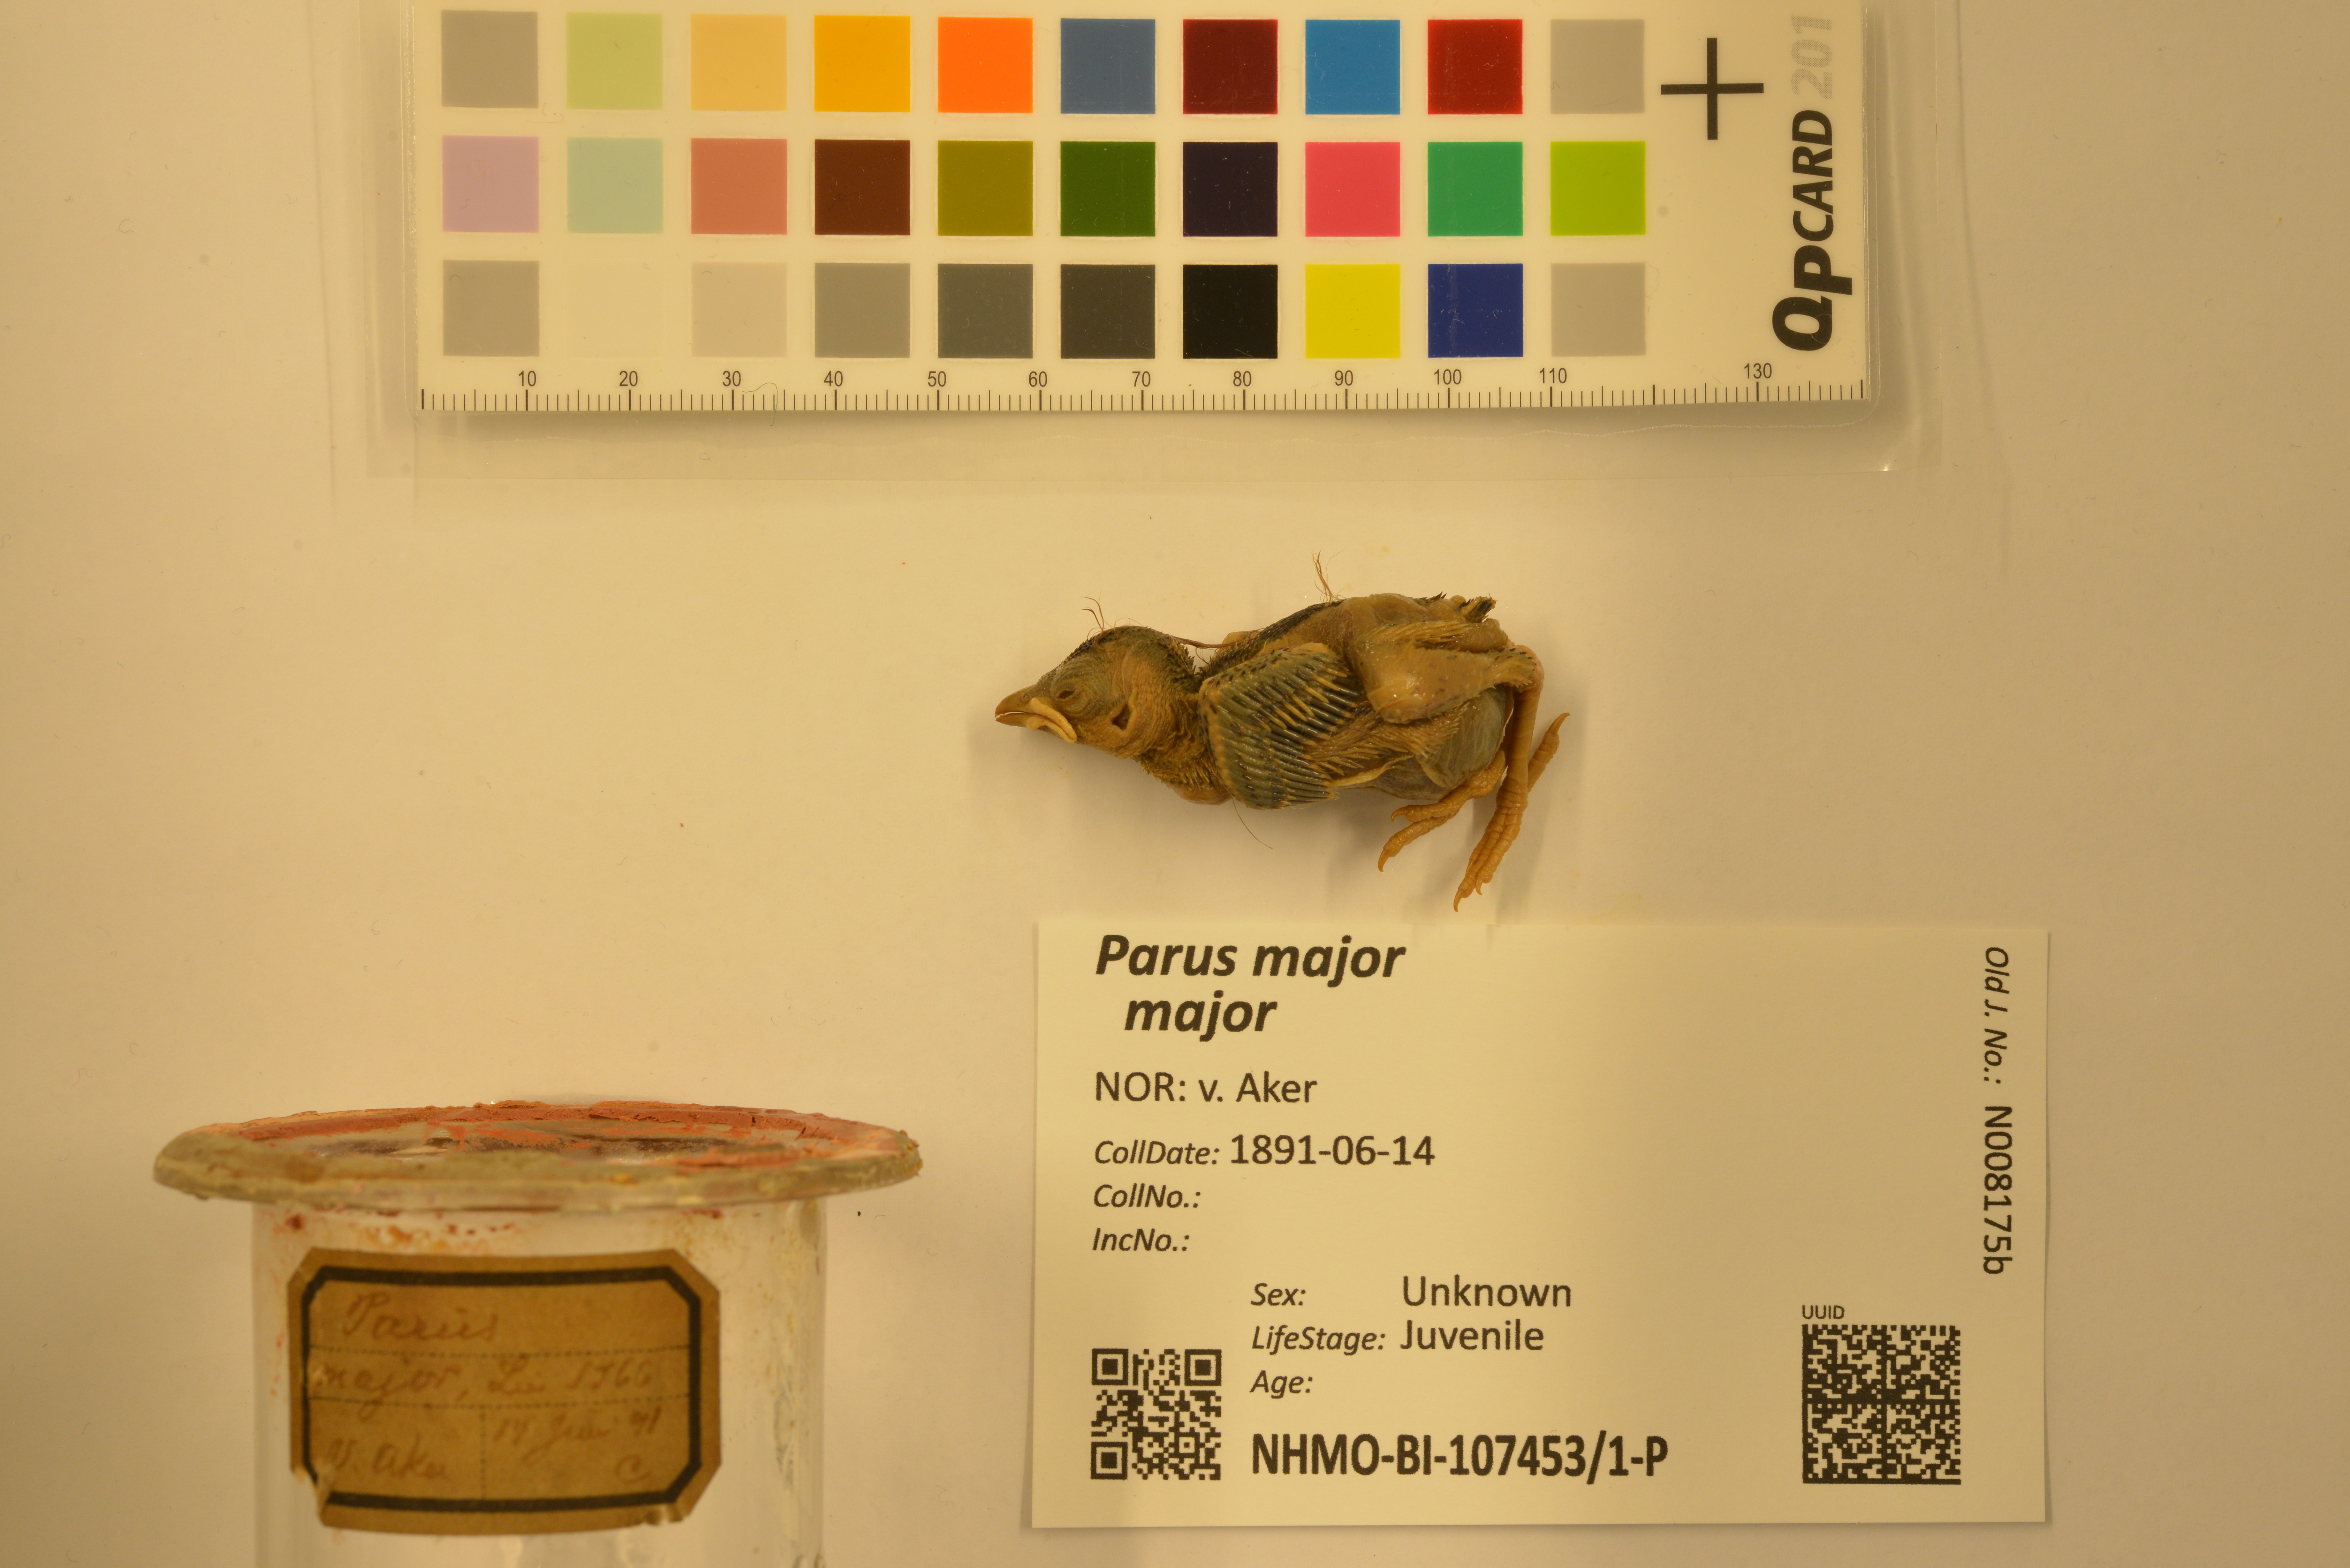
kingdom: Animalia
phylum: Chordata
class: Aves
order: Passeriformes
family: Paridae
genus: Parus
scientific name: Parus major
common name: Great tit
